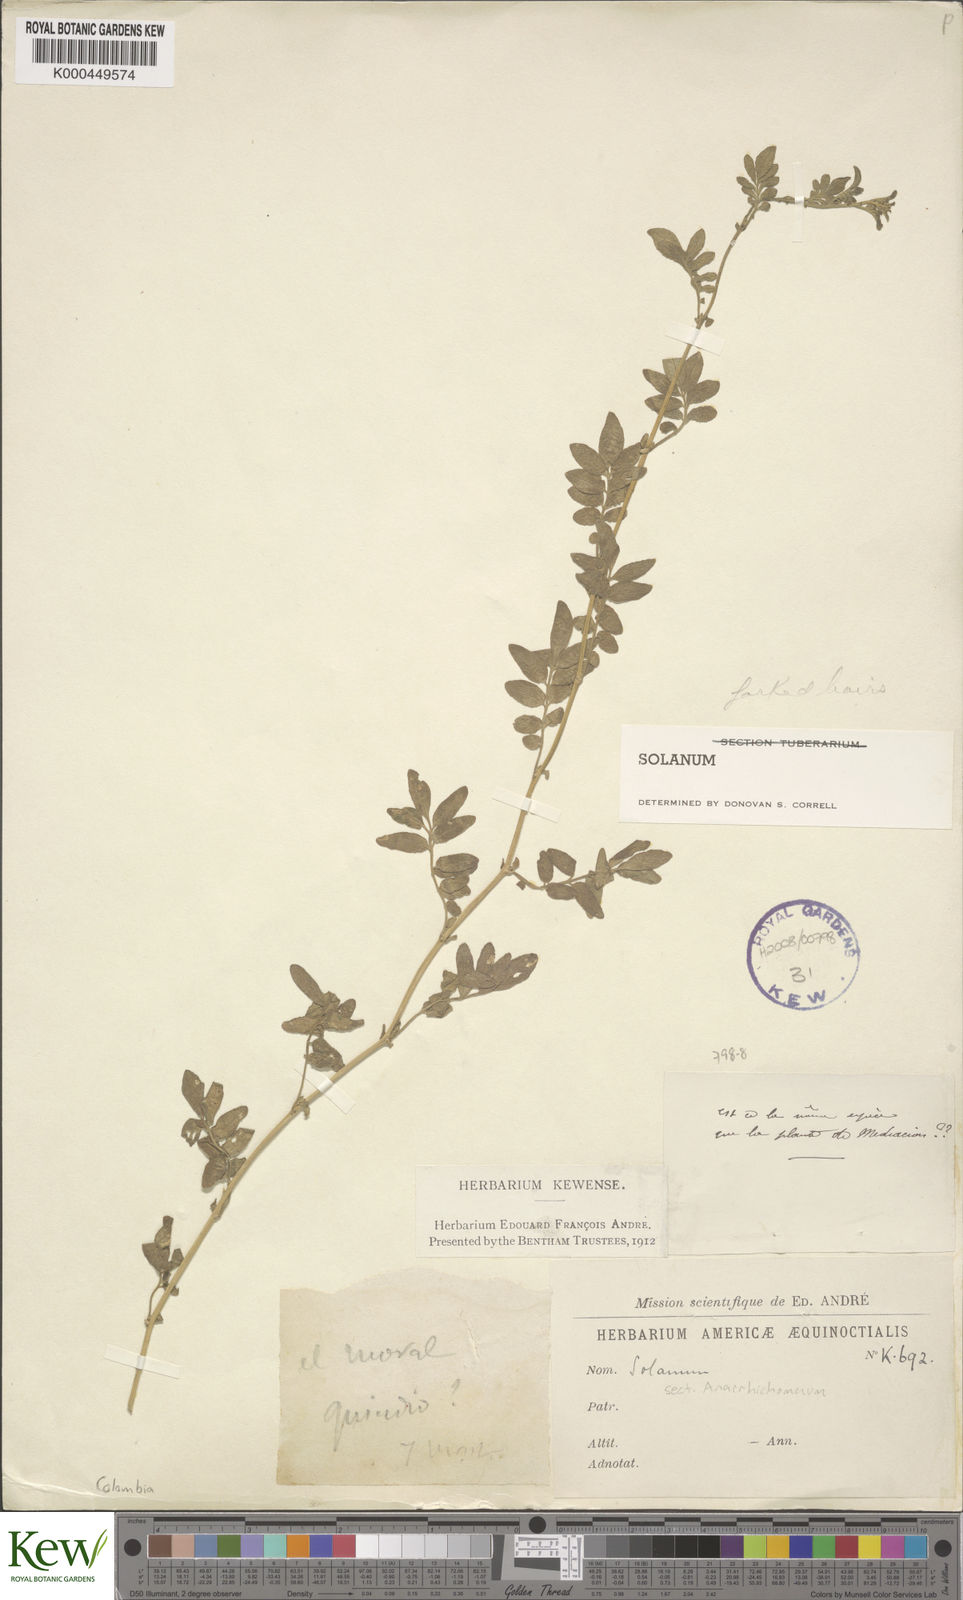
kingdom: Plantae
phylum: Tracheophyta
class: Magnoliopsida
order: Solanales
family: Solanaceae
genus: Solanum
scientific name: Solanum
